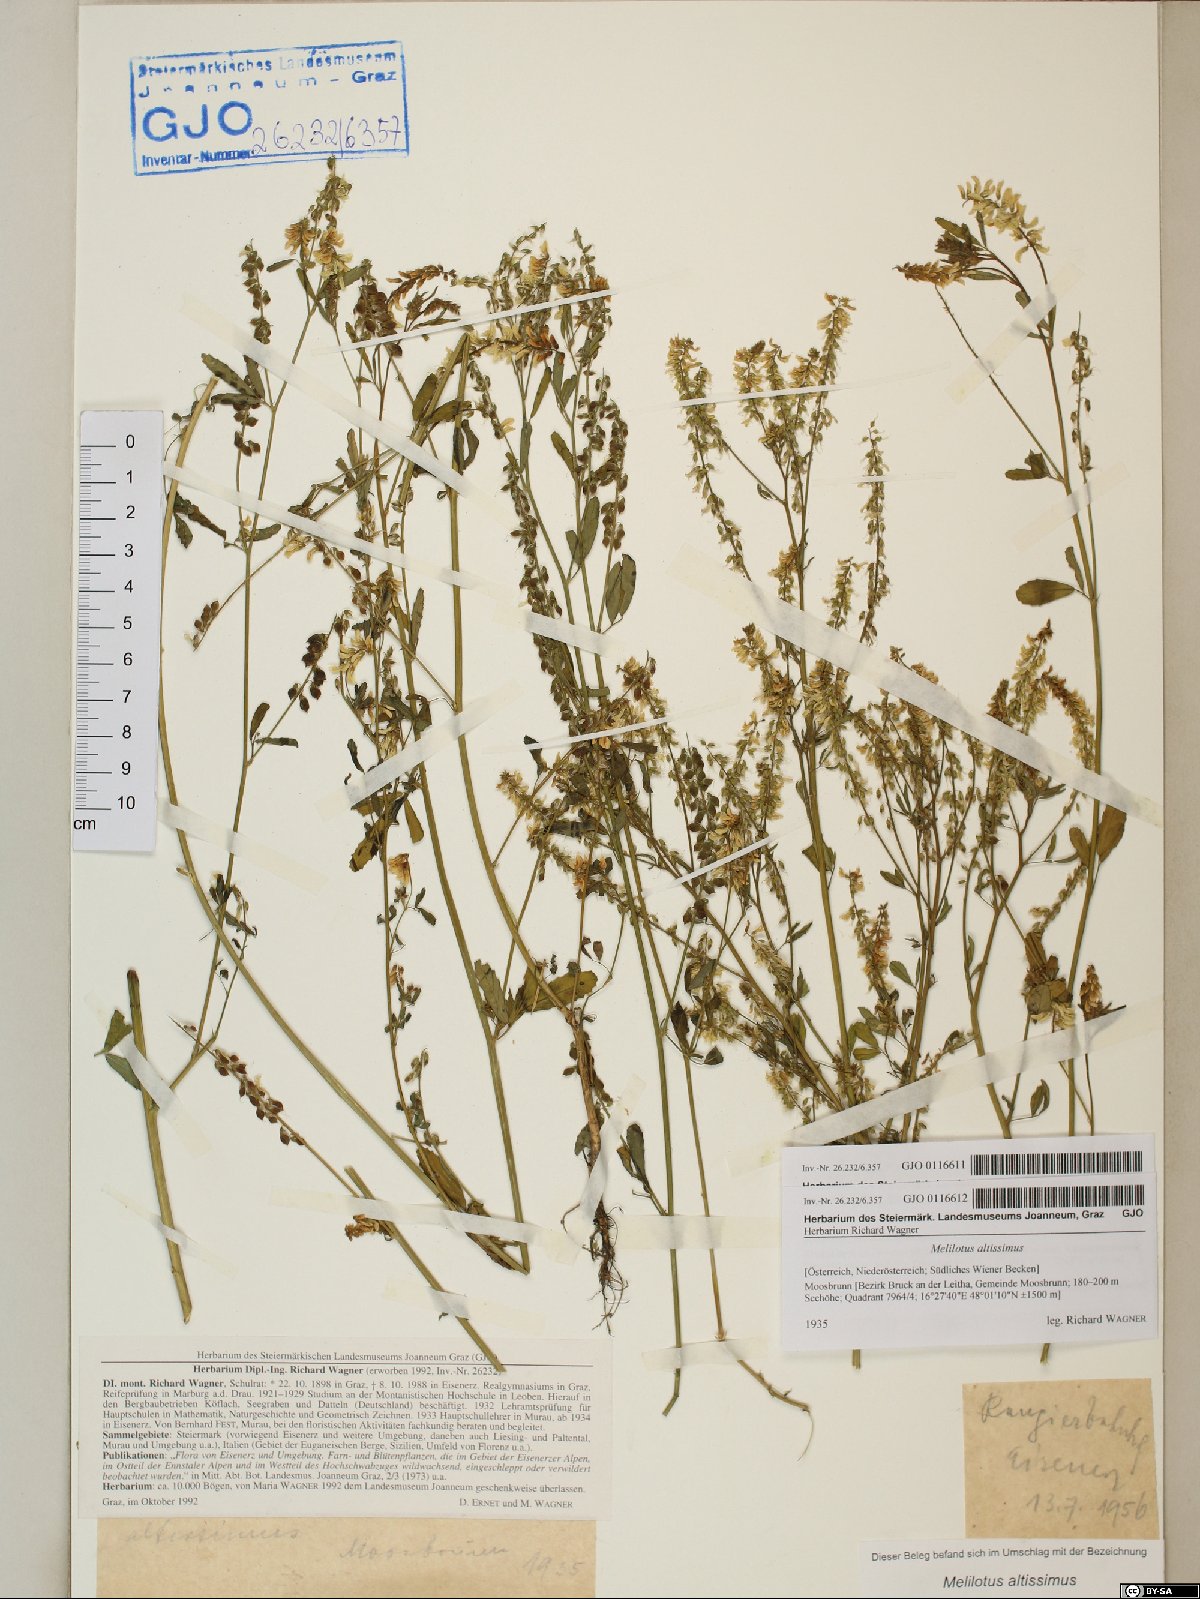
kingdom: Plantae
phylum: Tracheophyta
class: Magnoliopsida
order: Fabales
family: Fabaceae
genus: Melilotus
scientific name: Melilotus altissimus
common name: Tall melilot
